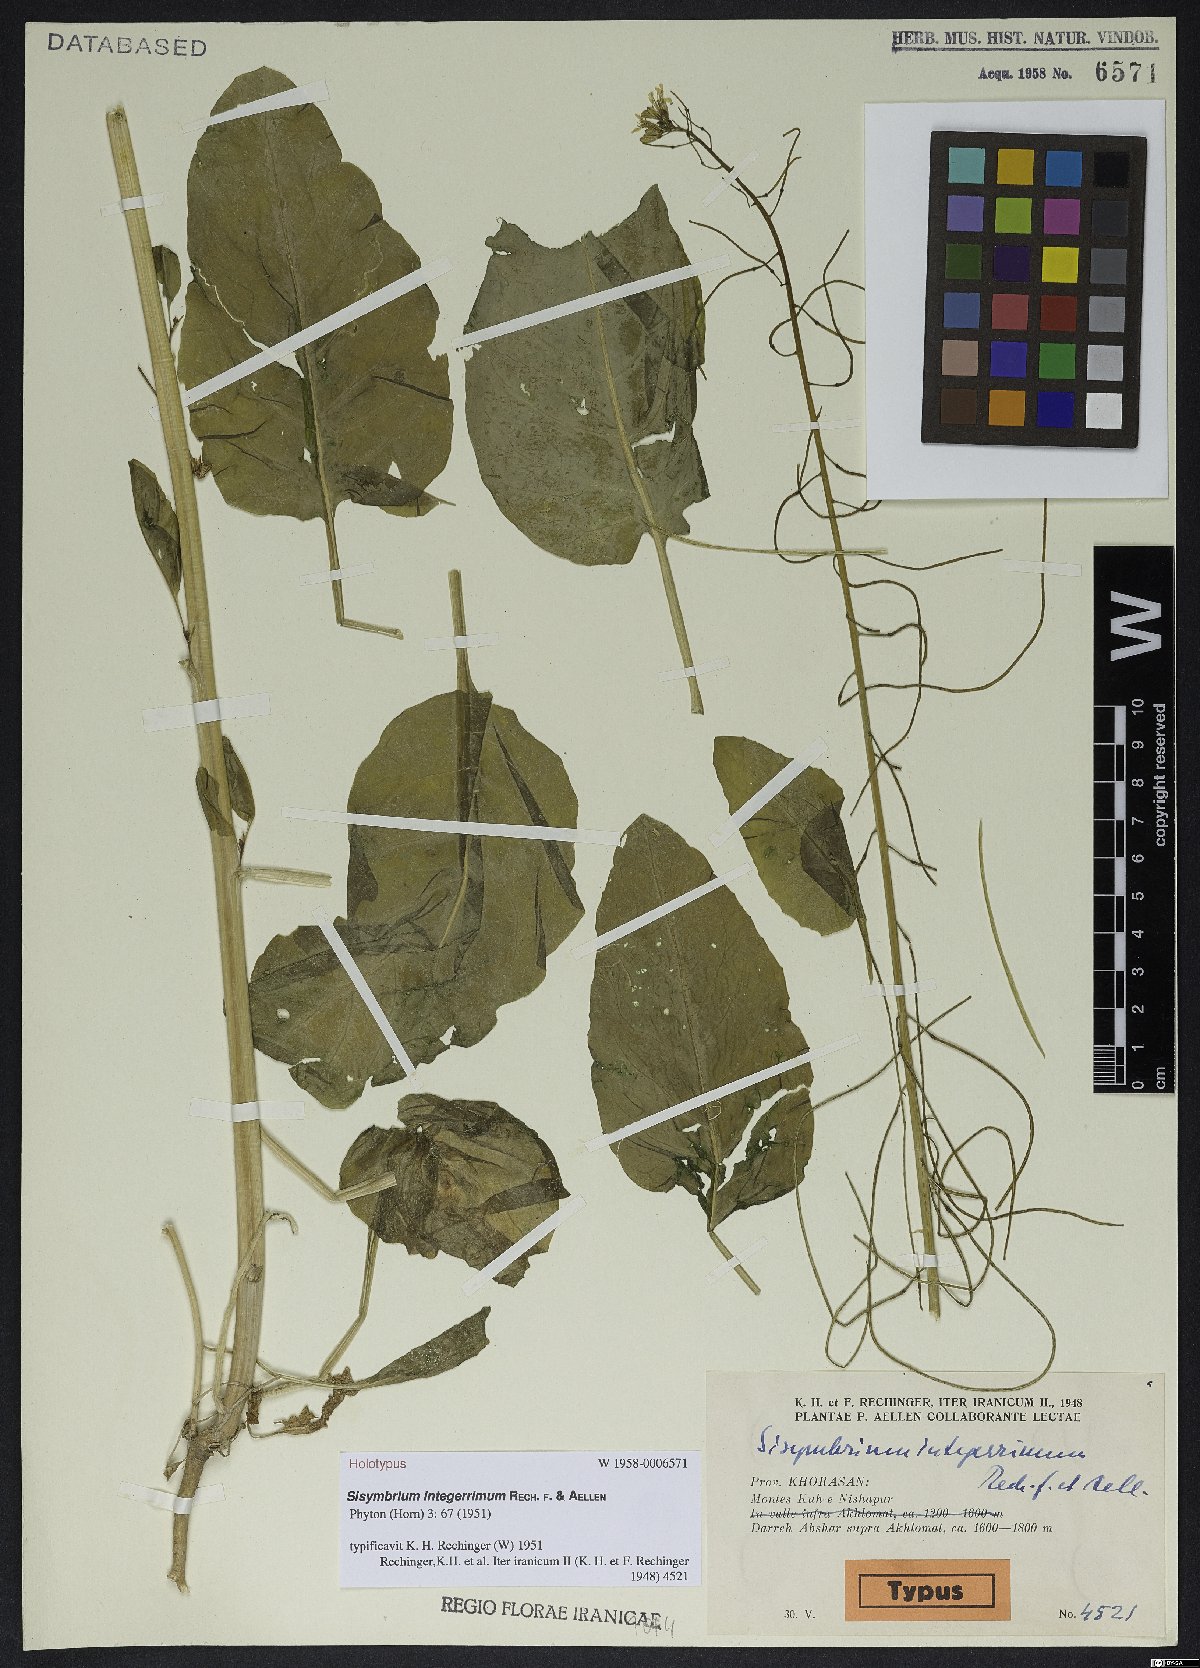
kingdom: Plantae
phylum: Tracheophyta
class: Magnoliopsida
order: Brassicales
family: Brassicaceae
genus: Sisymbrium
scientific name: Sisymbrium integerrimum
